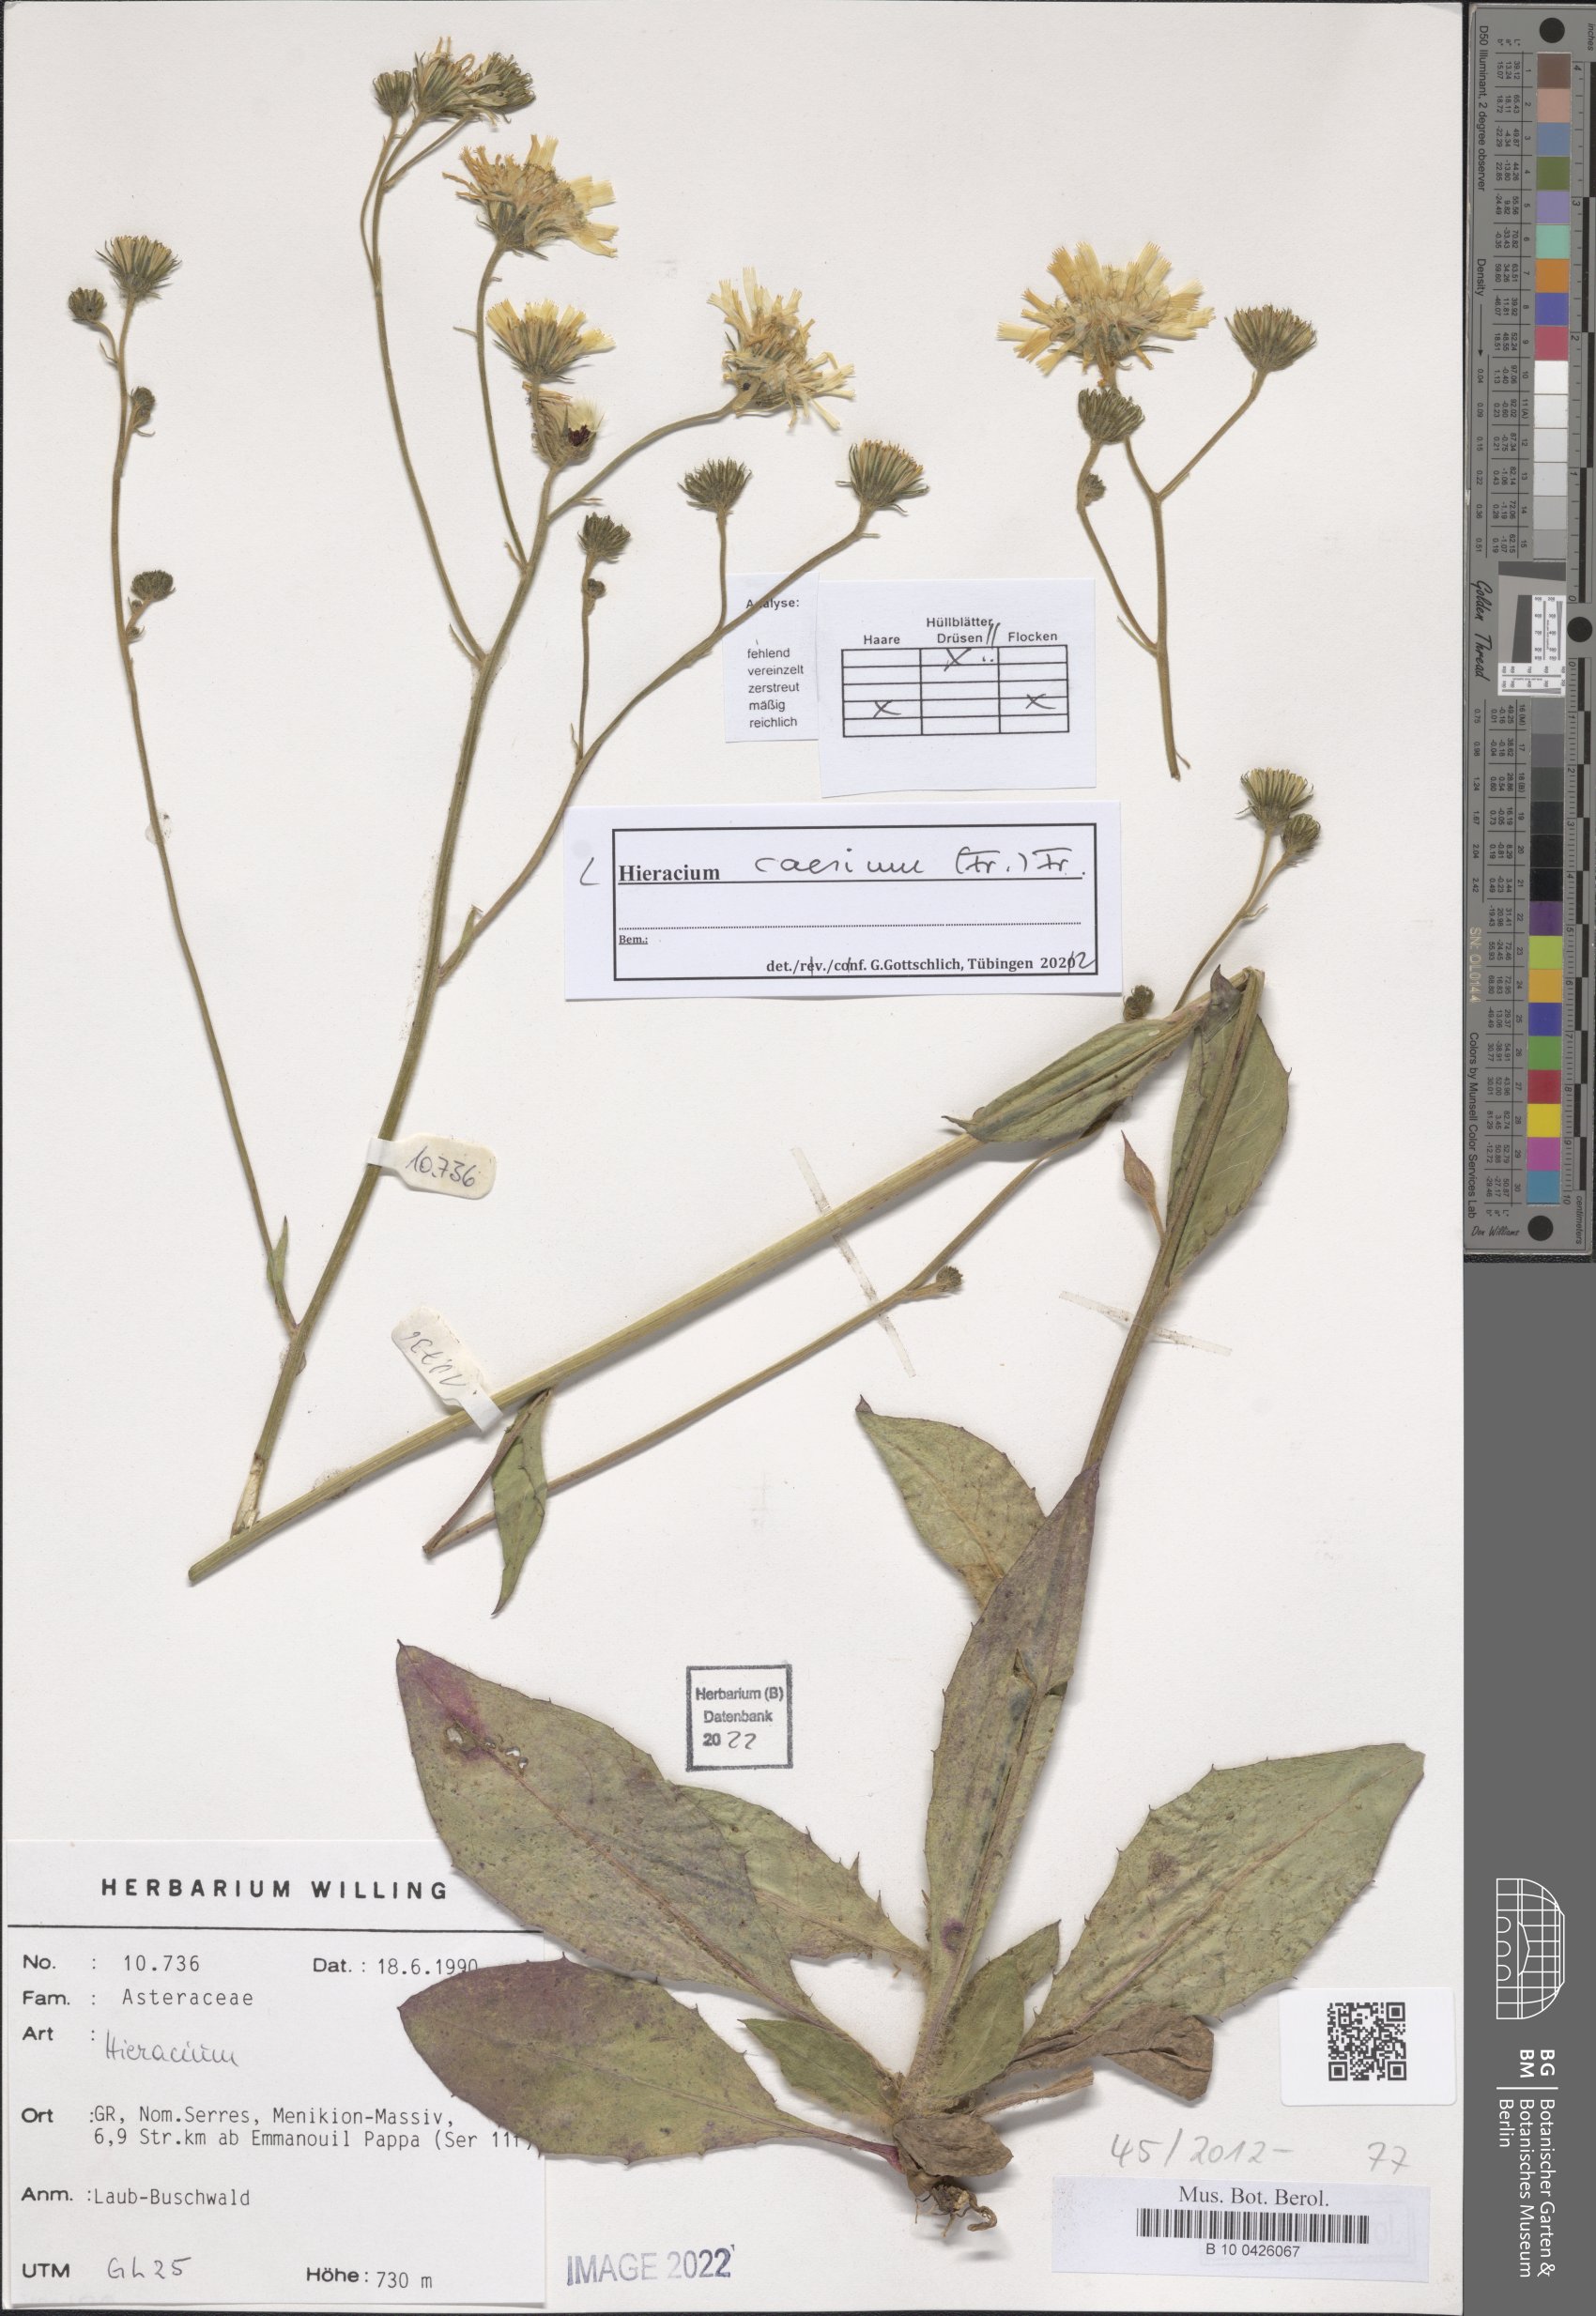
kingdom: Plantae
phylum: Tracheophyta
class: Magnoliopsida
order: Asterales
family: Asteraceae
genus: Hieracium
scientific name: Hieracium caesium
